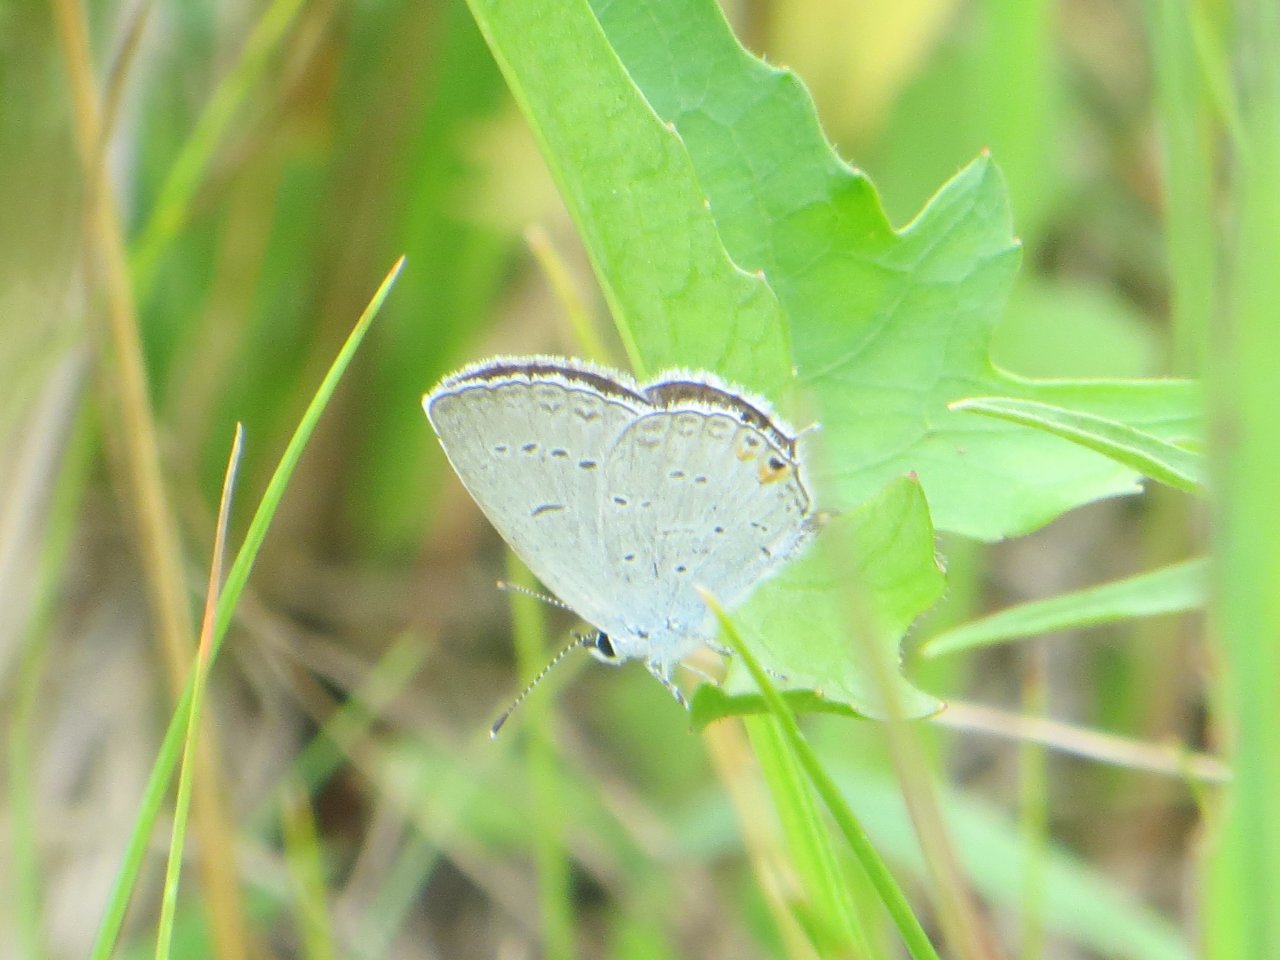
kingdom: Animalia
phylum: Arthropoda
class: Insecta
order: Lepidoptera
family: Lycaenidae
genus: Elkalyce
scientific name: Elkalyce comyntas
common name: Eastern Tailed-Blue
